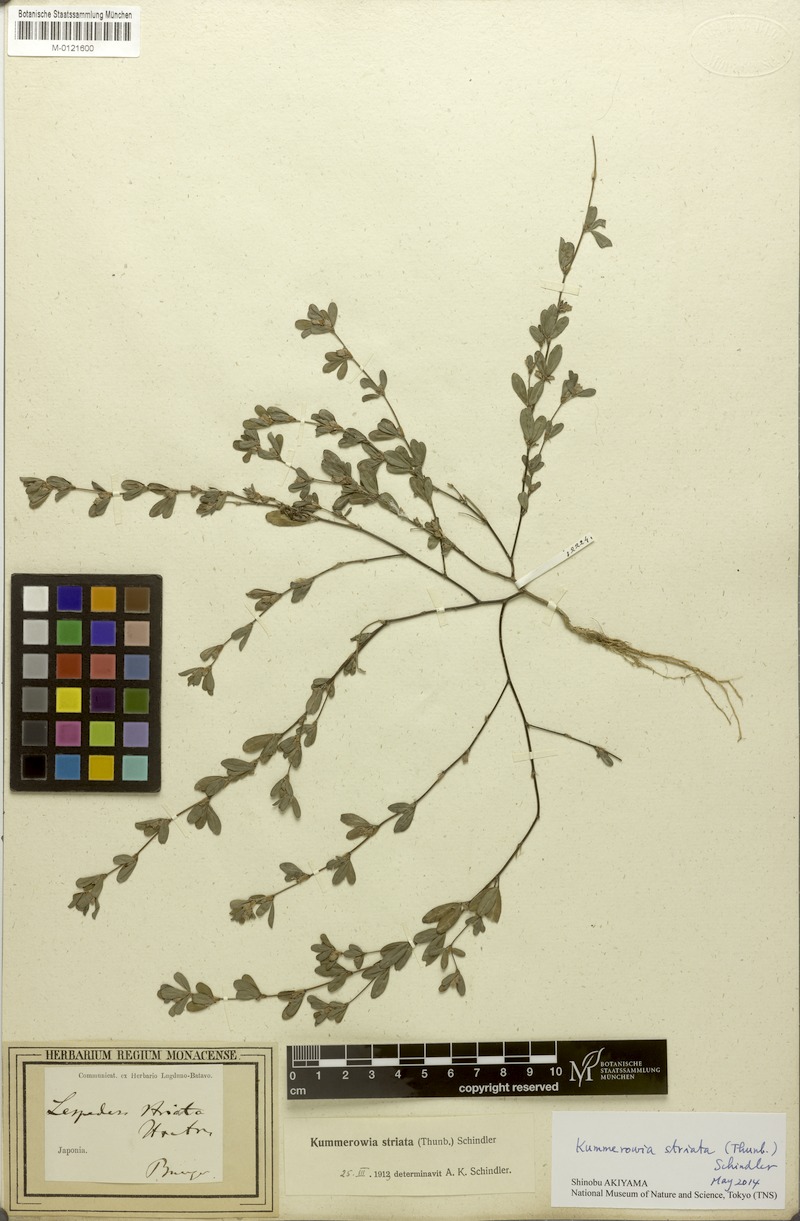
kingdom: Plantae
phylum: Tracheophyta
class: Magnoliopsida
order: Fabales
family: Fabaceae
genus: Kummerowia
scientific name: Kummerowia striata
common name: Japanese clover
